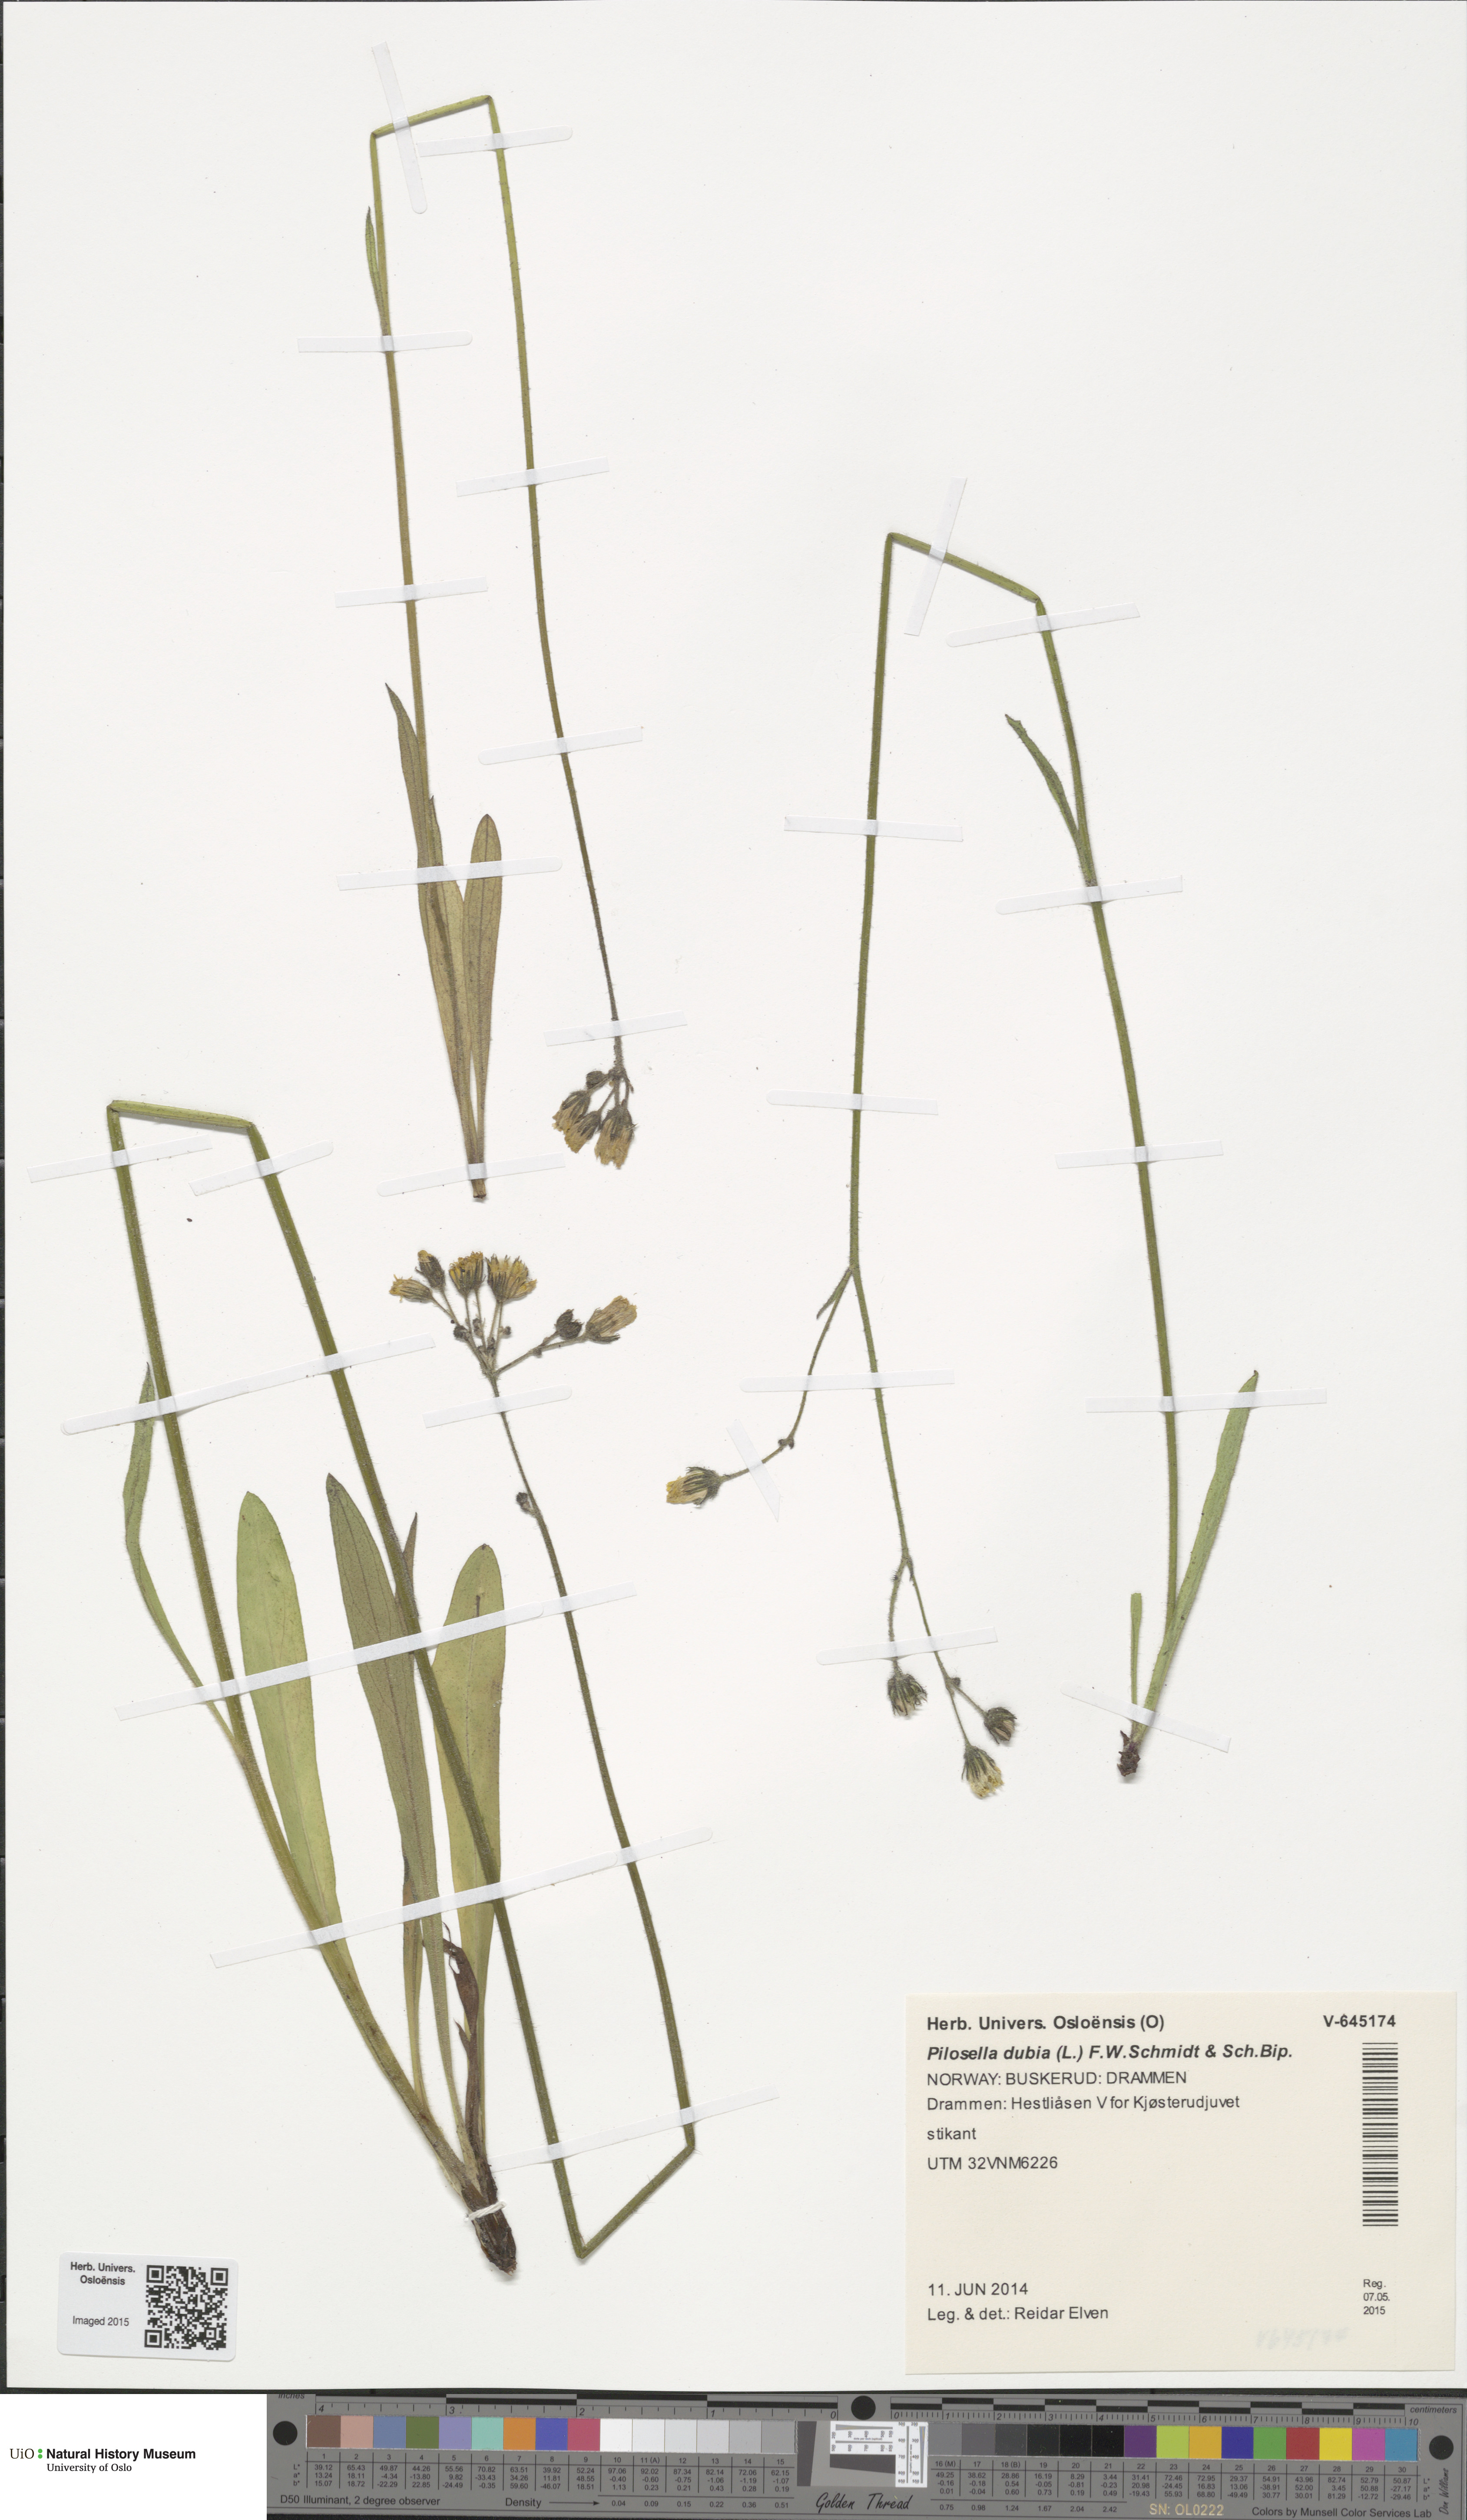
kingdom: Plantae
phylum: Tracheophyta
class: Magnoliopsida
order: Asterales
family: Asteraceae
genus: Pilosella
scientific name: Pilosella dubia
